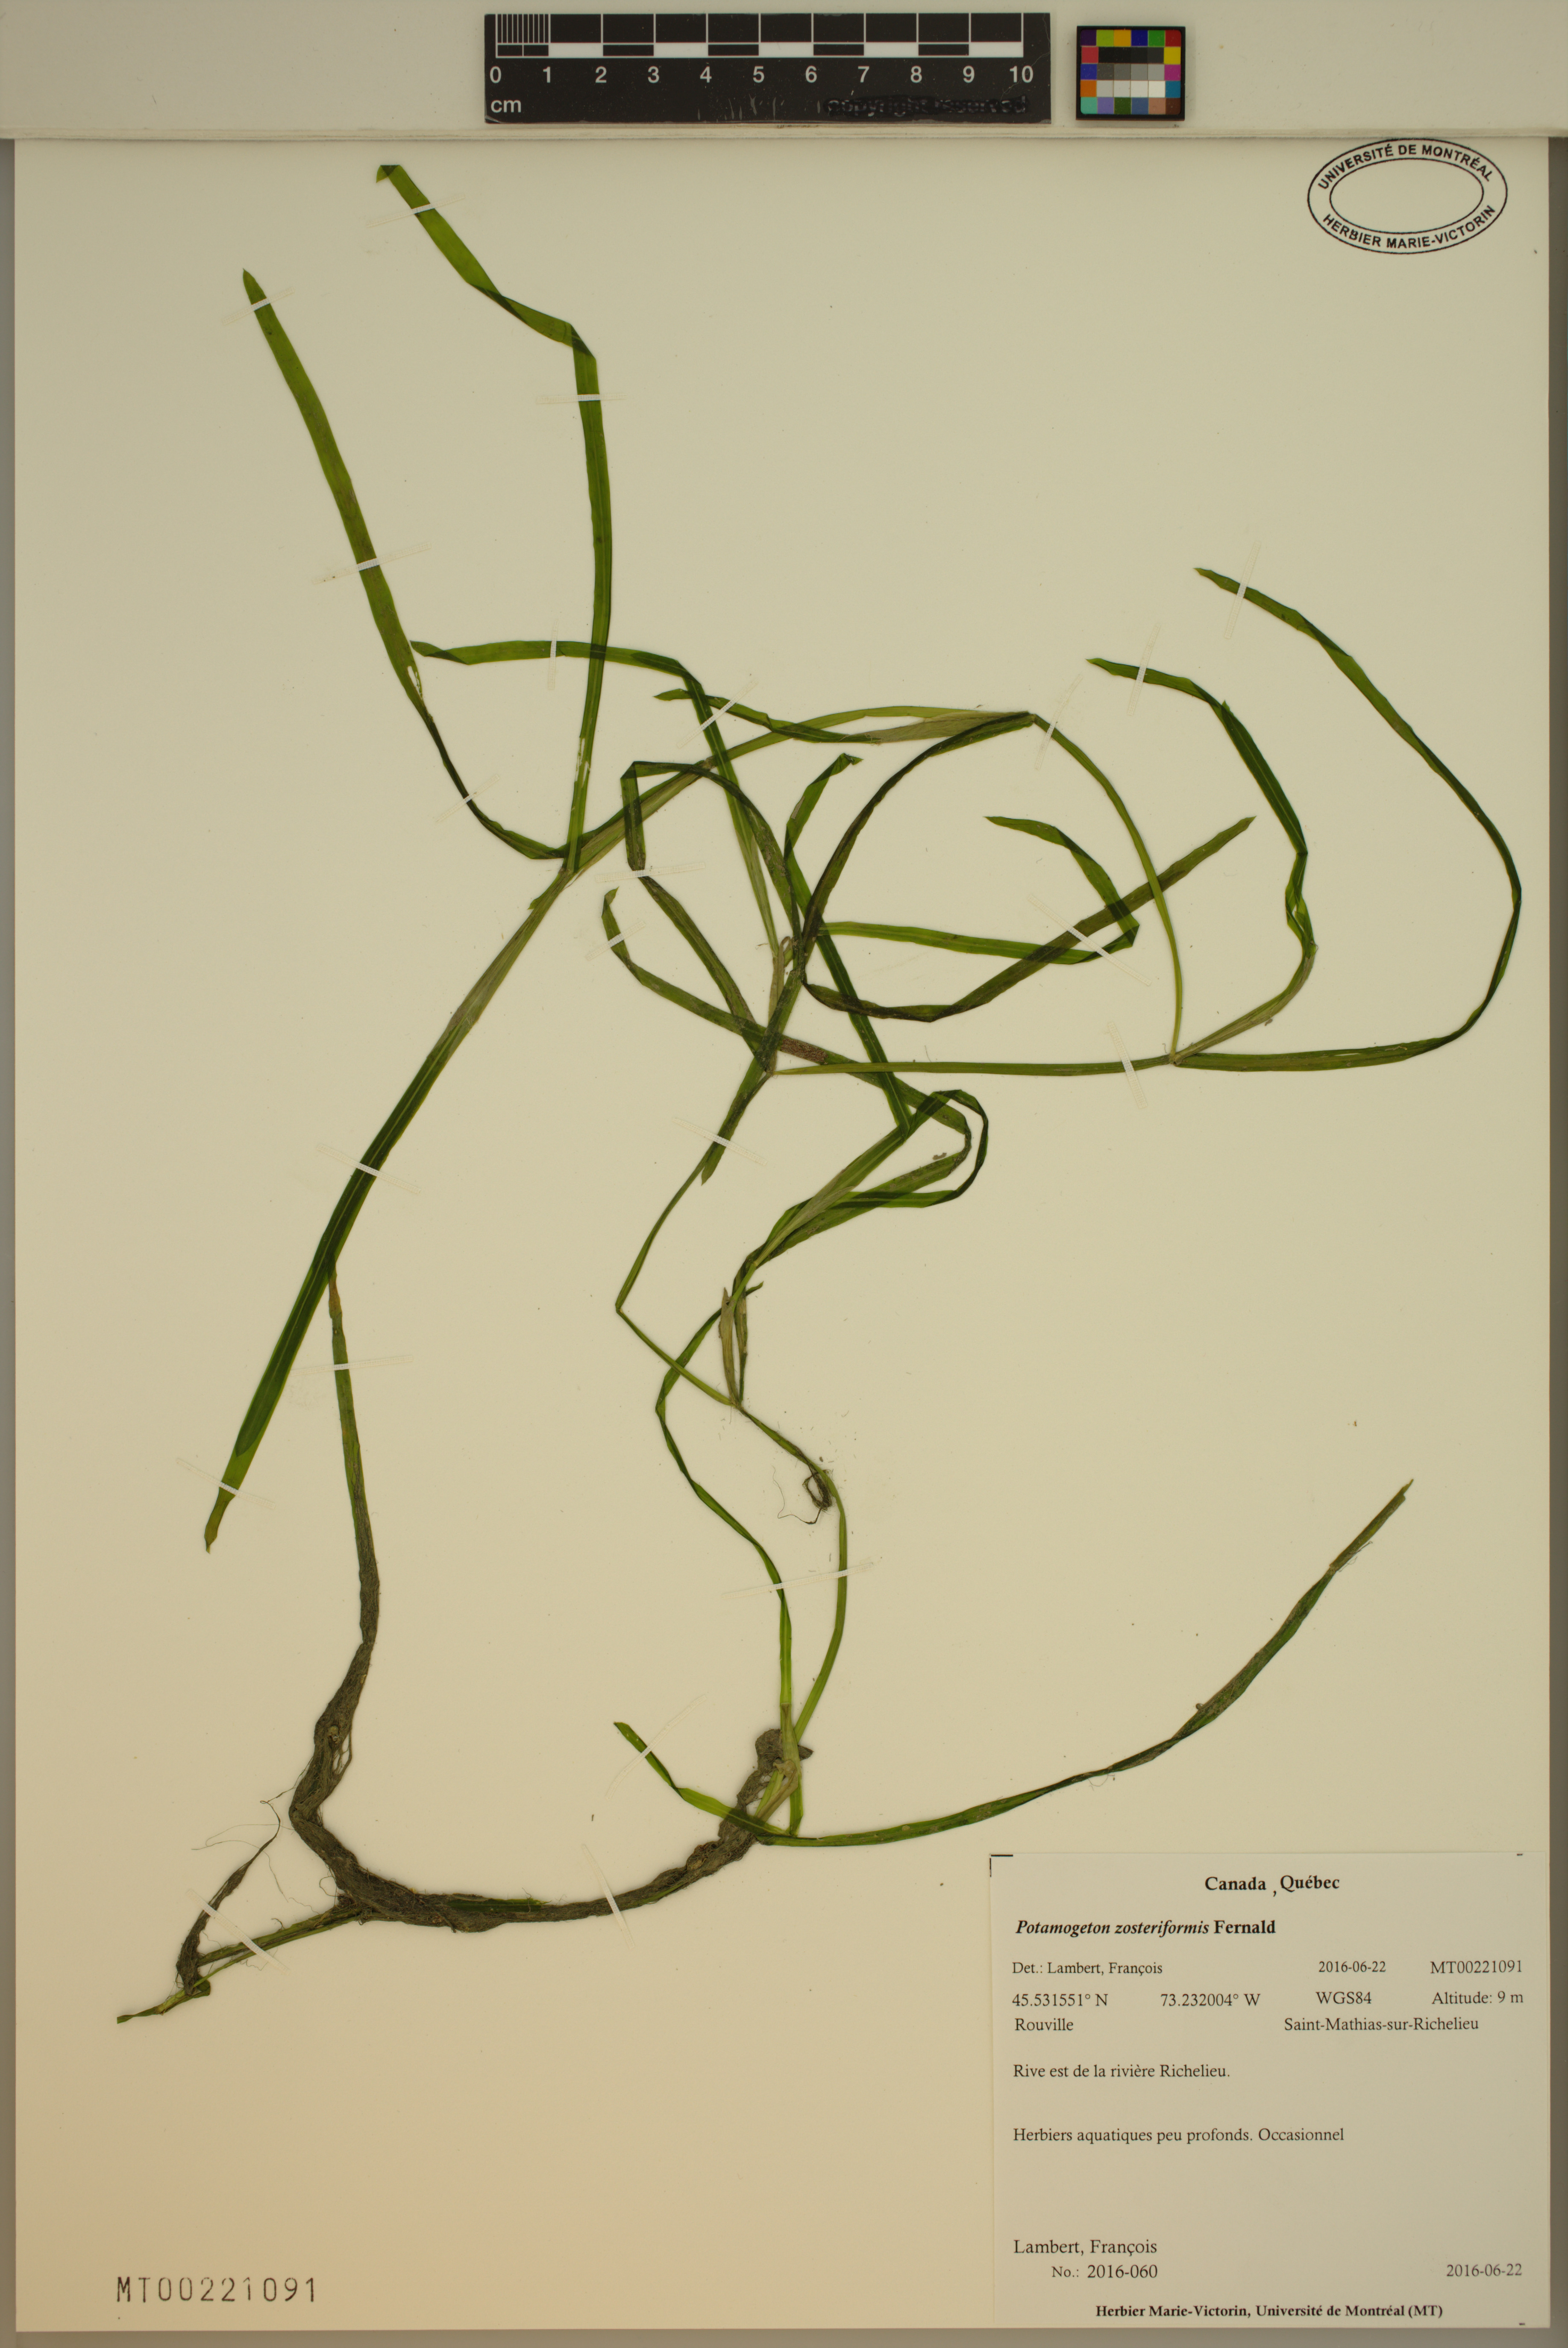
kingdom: Plantae
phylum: Tracheophyta
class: Liliopsida
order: Alismatales
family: Potamogetonaceae
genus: Potamogeton
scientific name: Potamogeton zosteriformis
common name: Eelgrass pondweed
